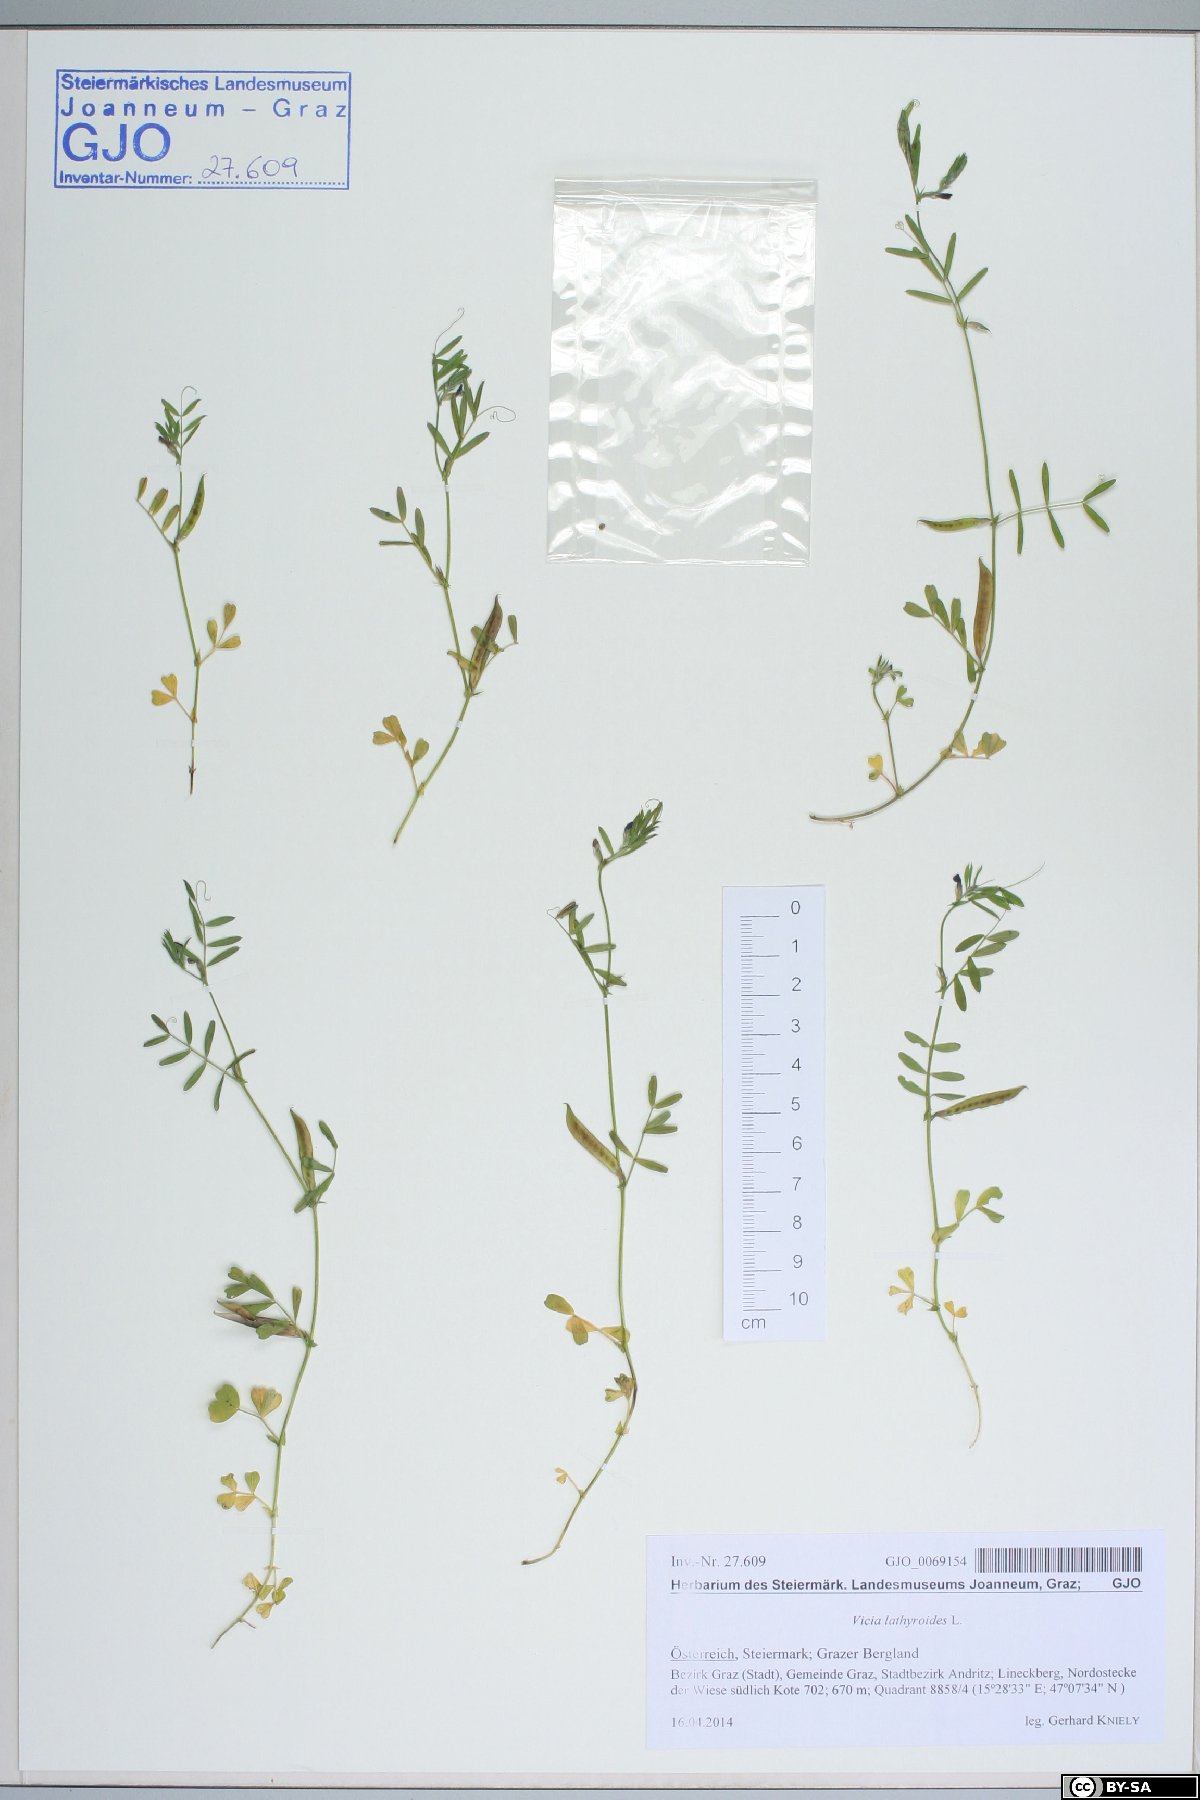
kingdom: Plantae
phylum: Tracheophyta
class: Magnoliopsida
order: Fabales
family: Fabaceae
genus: Vicia
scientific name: Vicia lathyroides
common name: Spring vetch
